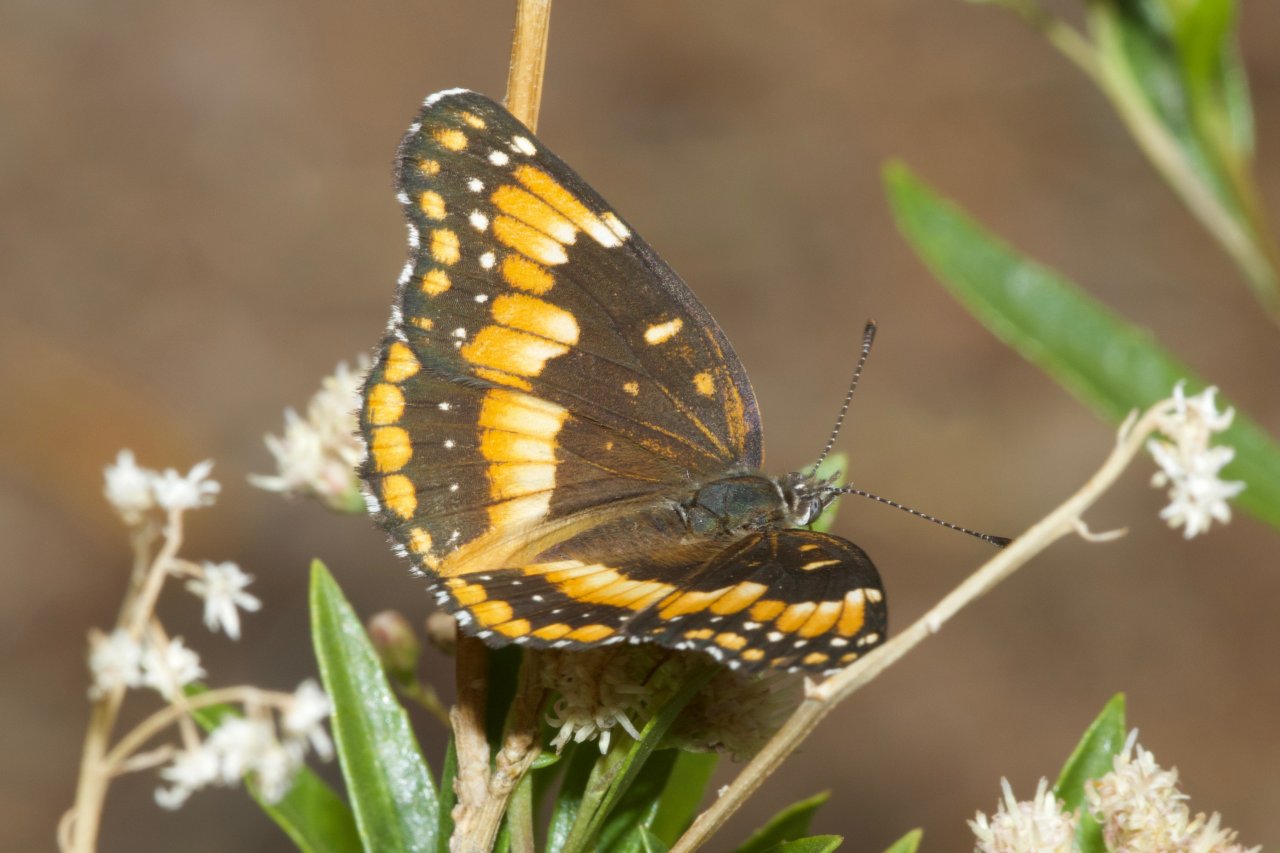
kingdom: Animalia
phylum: Arthropoda
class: Insecta
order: Lepidoptera
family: Nymphalidae
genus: Chlosyne
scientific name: Chlosyne californica
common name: California Patch
